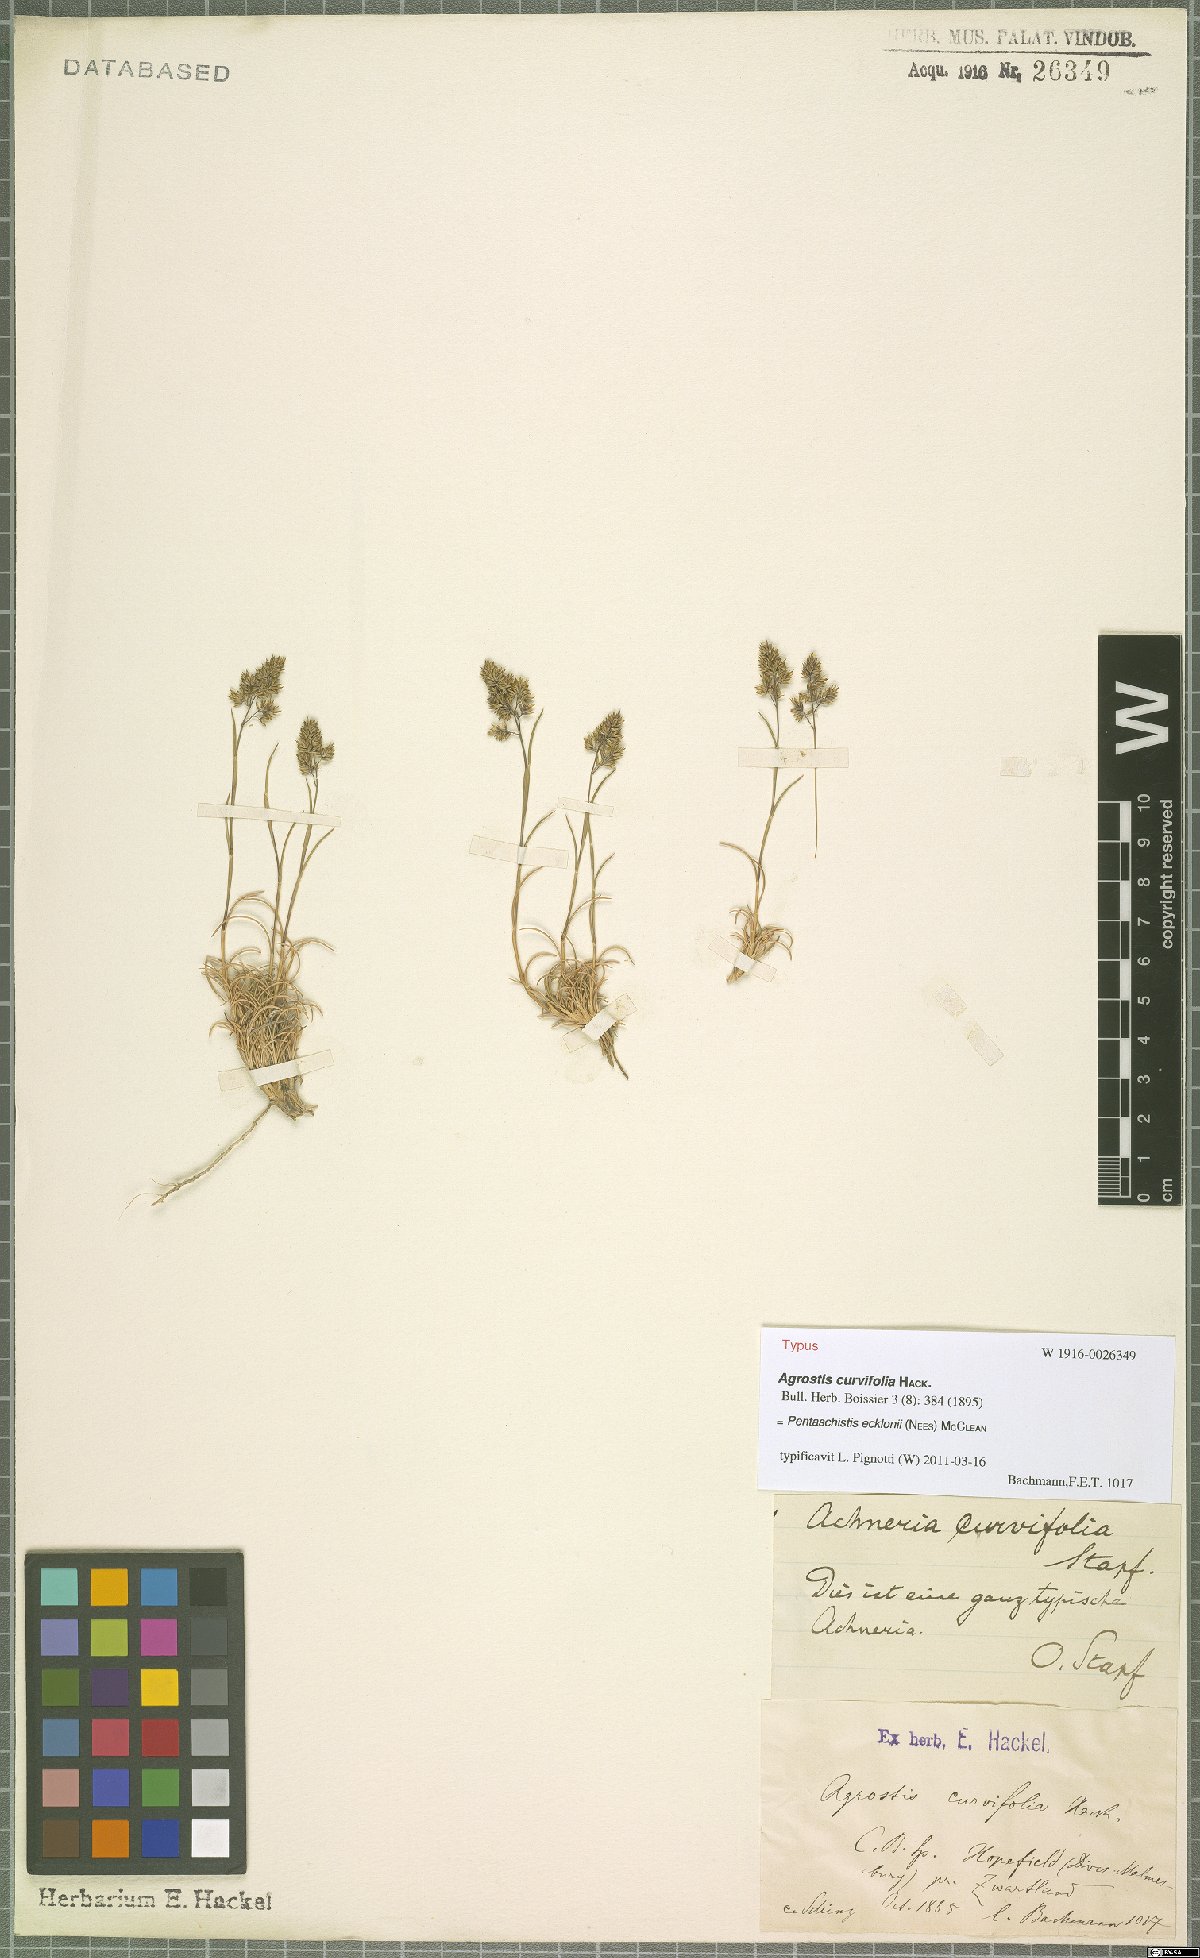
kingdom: Plantae
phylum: Tracheophyta
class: Liliopsida
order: Poales
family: Poaceae
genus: Pentameris
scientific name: Pentameris ecklonii
